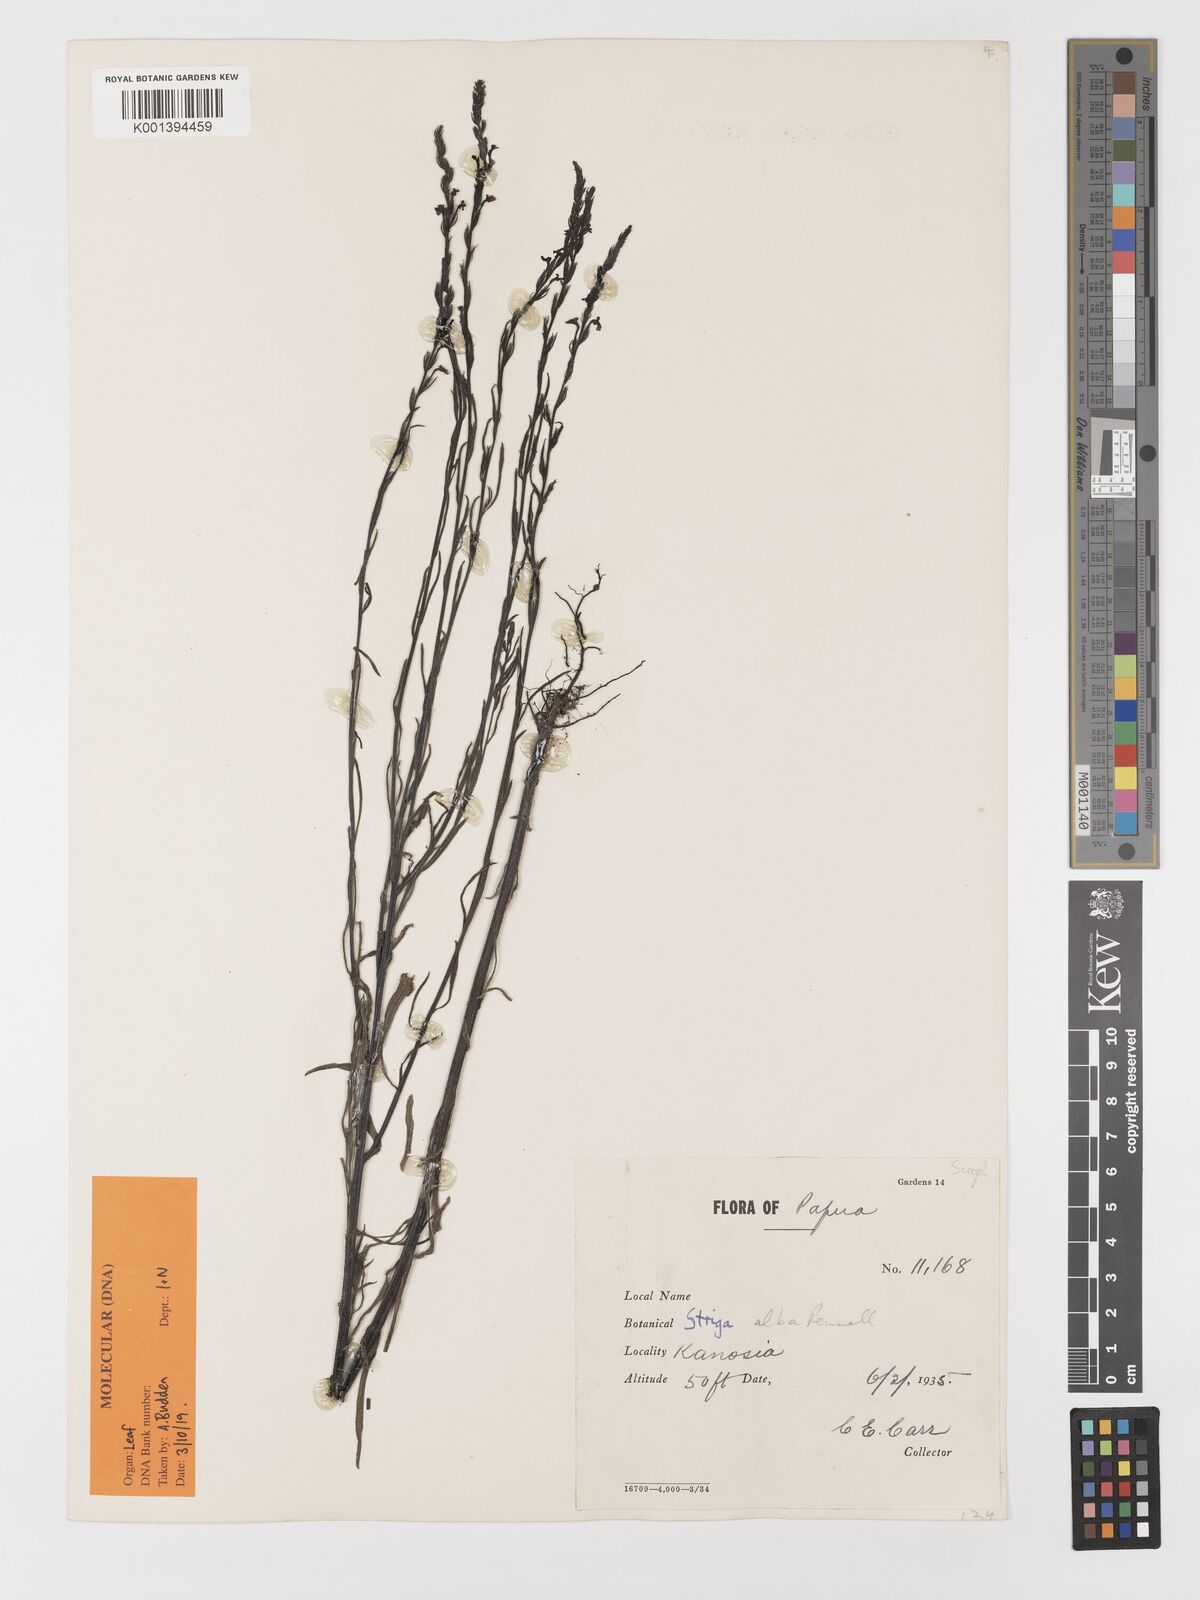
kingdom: Plantae
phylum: Tracheophyta
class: Magnoliopsida
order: Lamiales
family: Orobanchaceae
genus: Striga
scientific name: Striga alba
